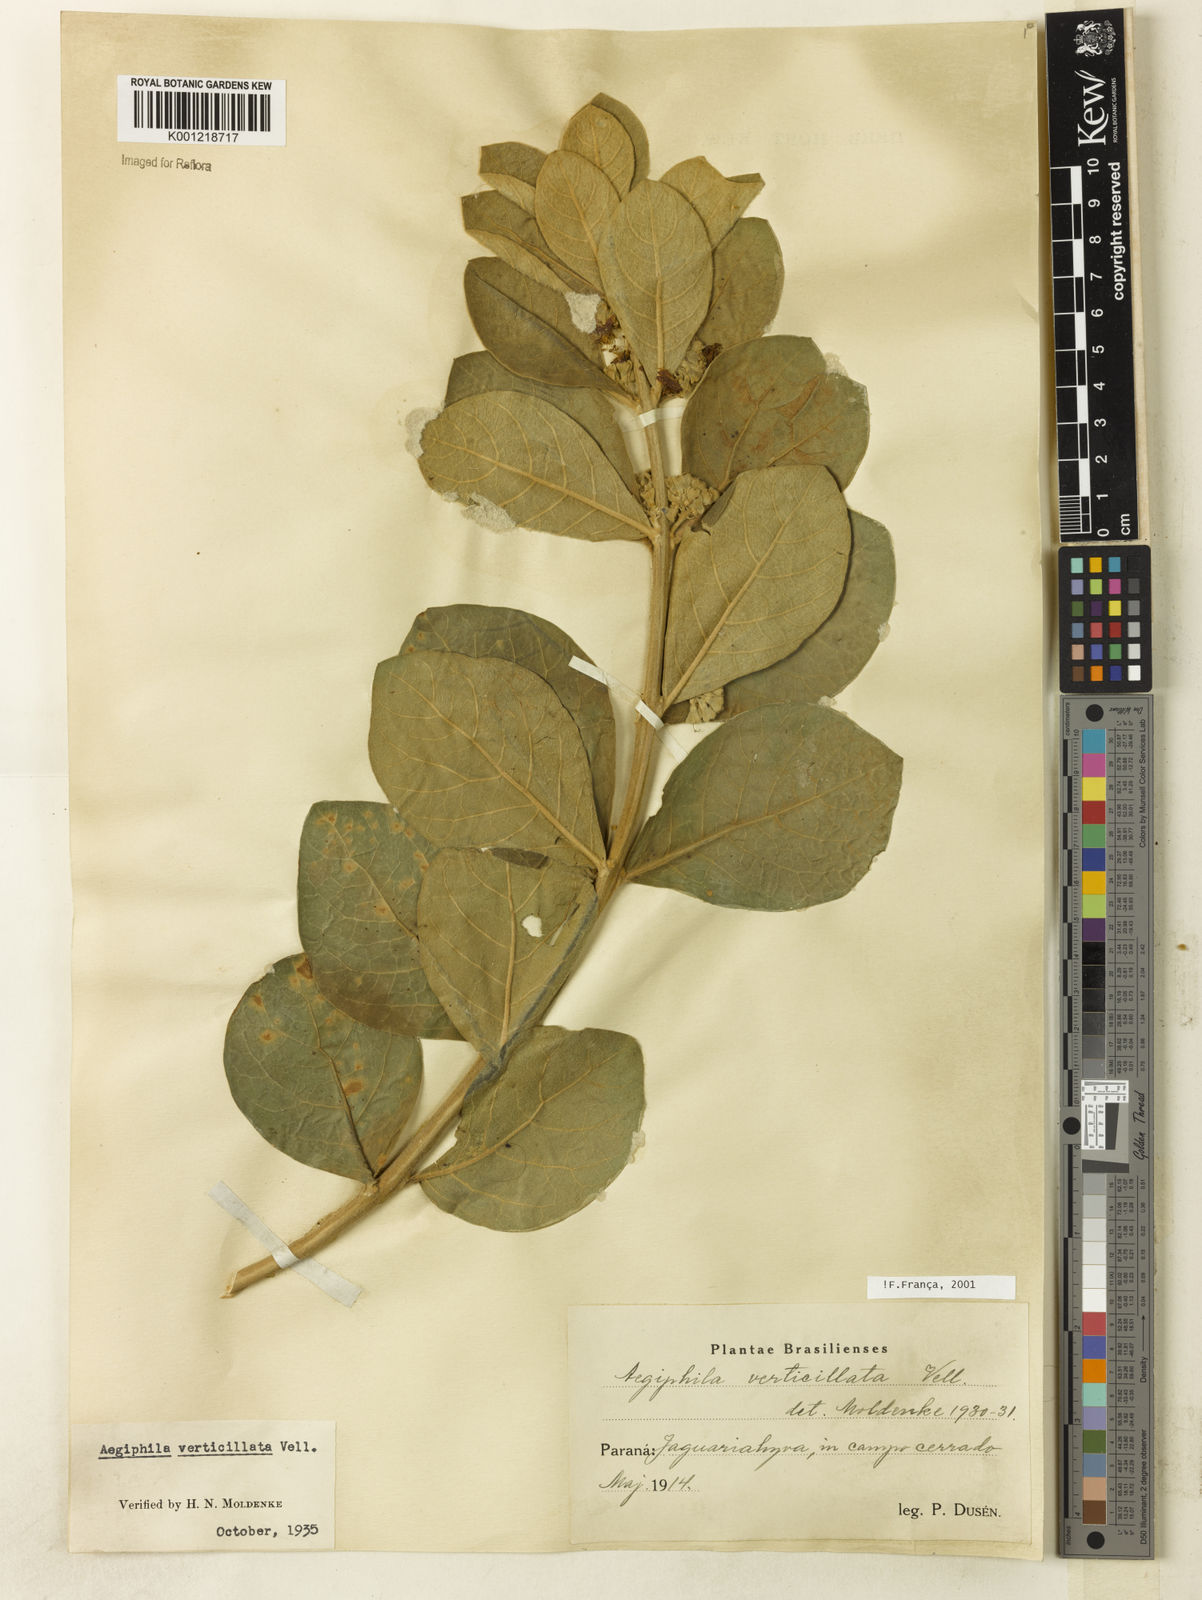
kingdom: Plantae
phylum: Tracheophyta
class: Magnoliopsida
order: Lamiales
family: Lamiaceae
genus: Aegiphila
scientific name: Aegiphila verticillata
